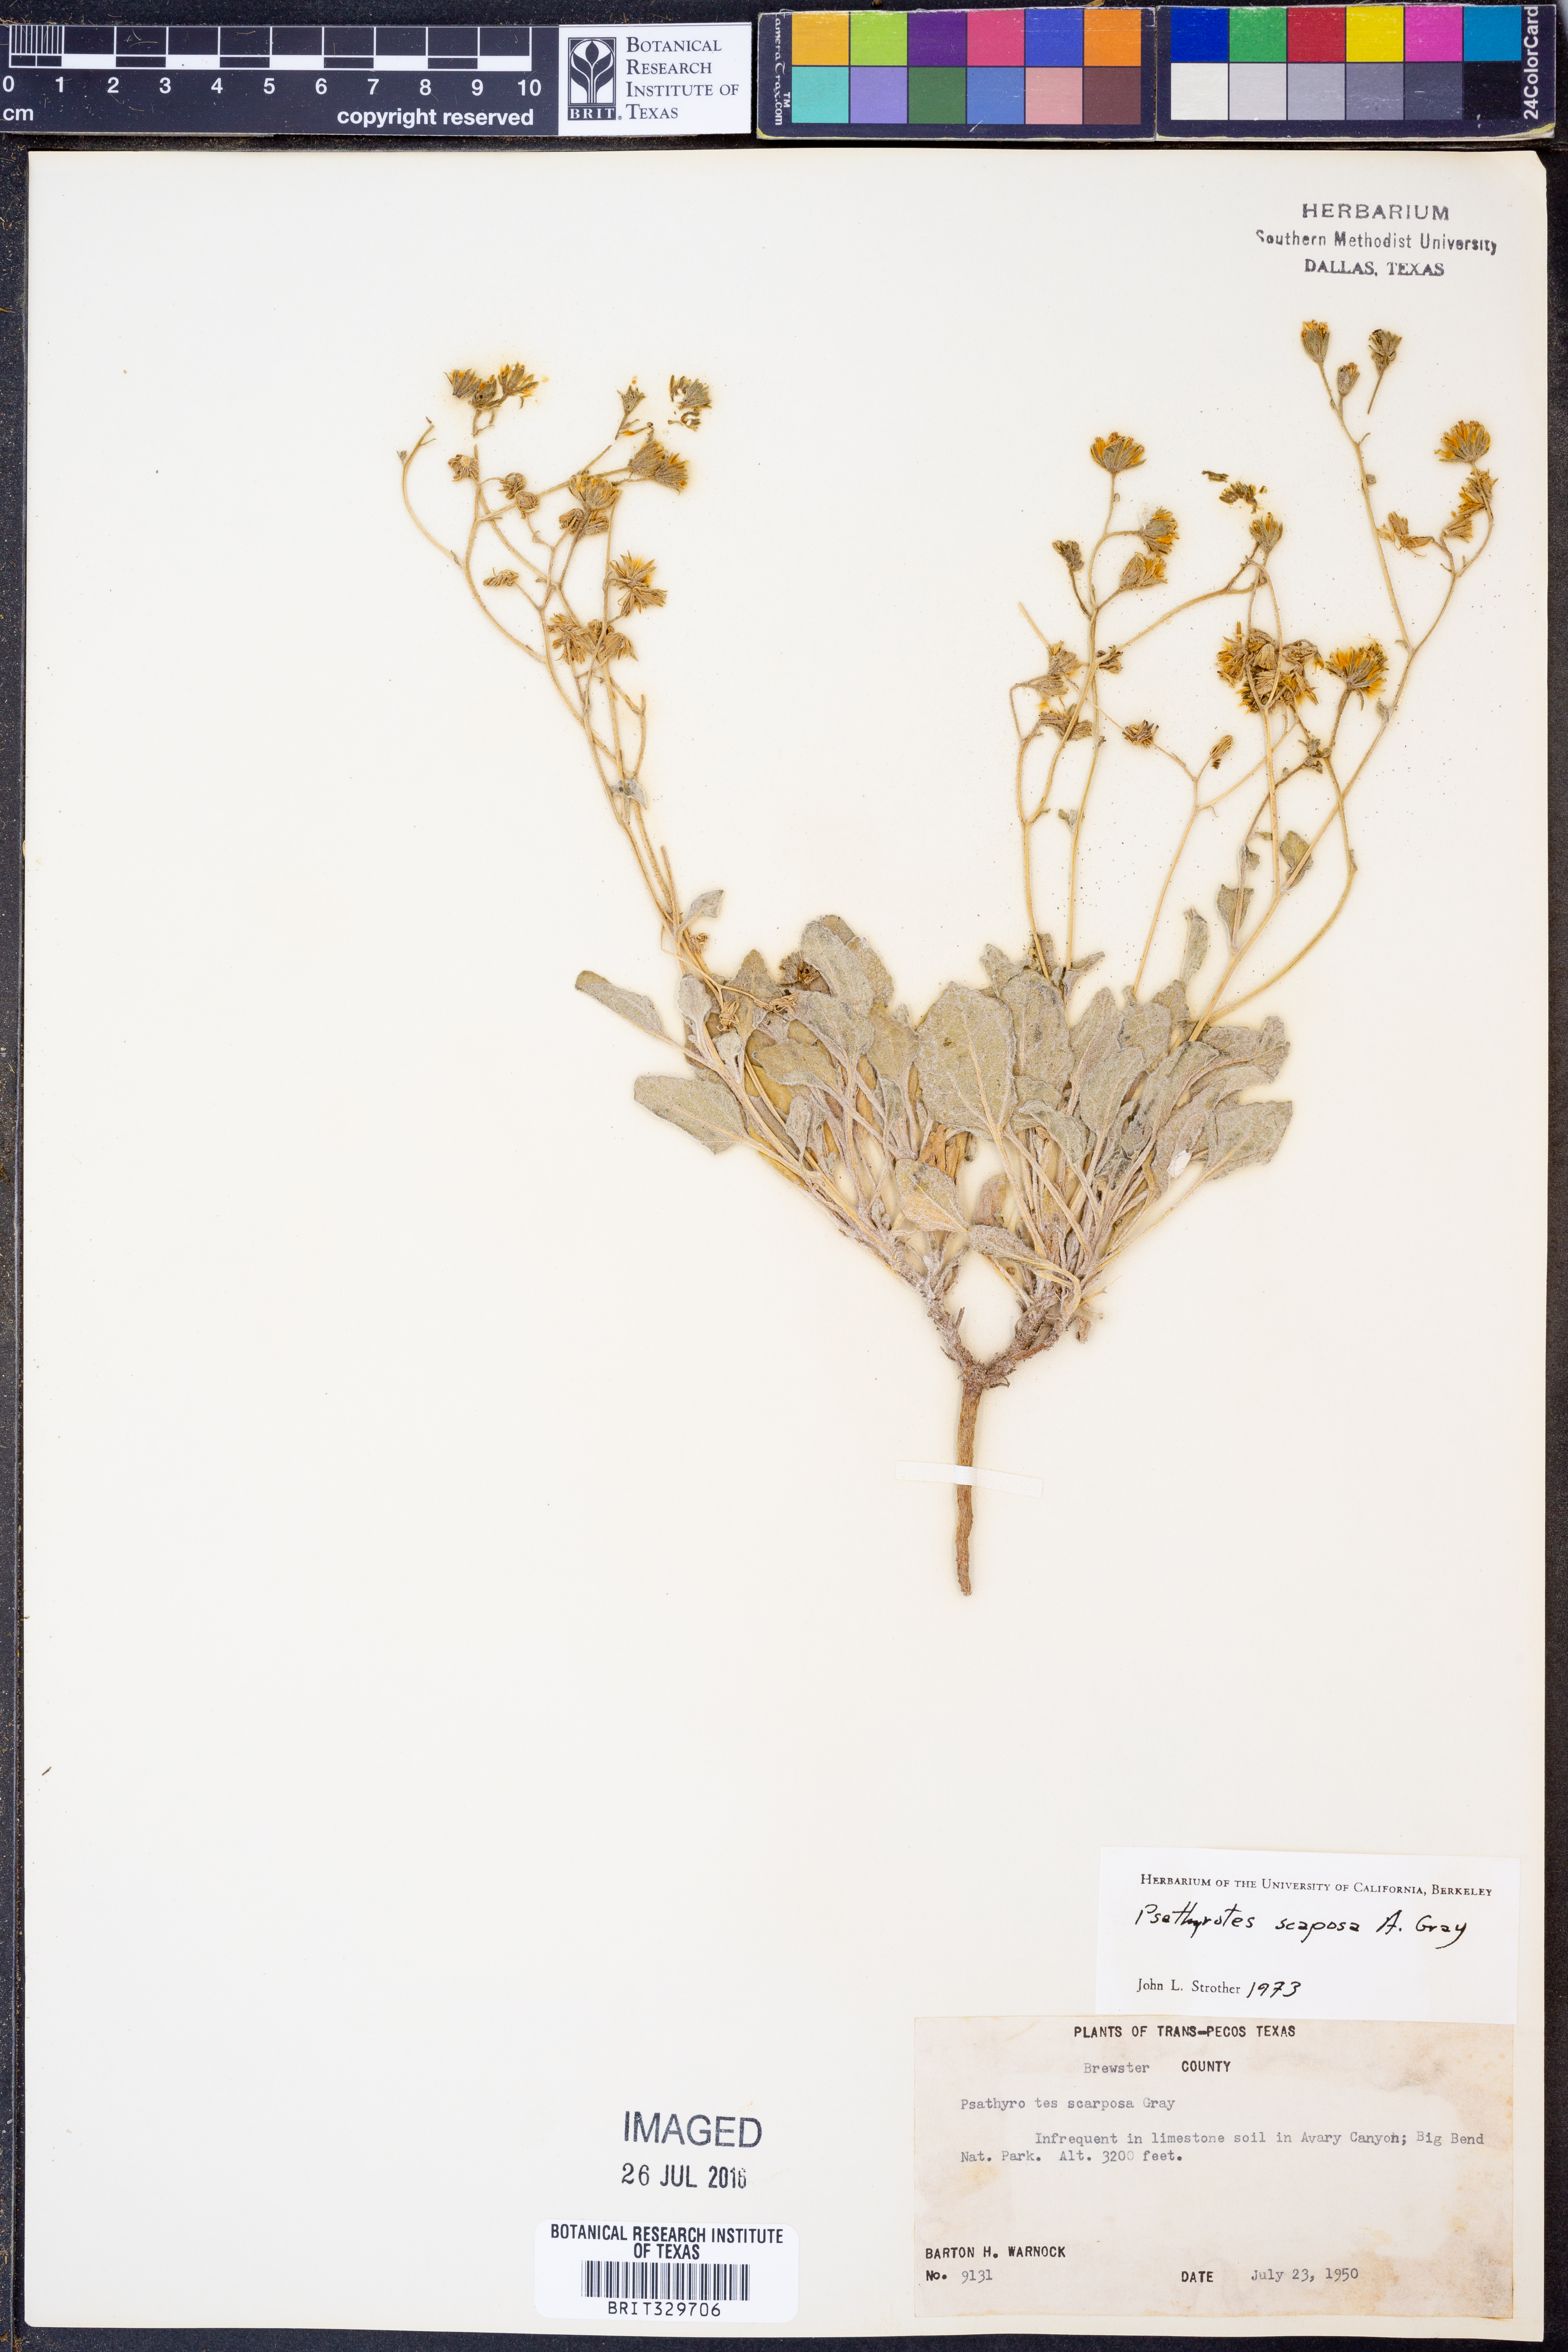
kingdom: Plantae
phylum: Tracheophyta
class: Magnoliopsida
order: Asterales
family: Asteraceae
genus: Psathyrotopsis
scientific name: Psathyrotopsis scaposa
